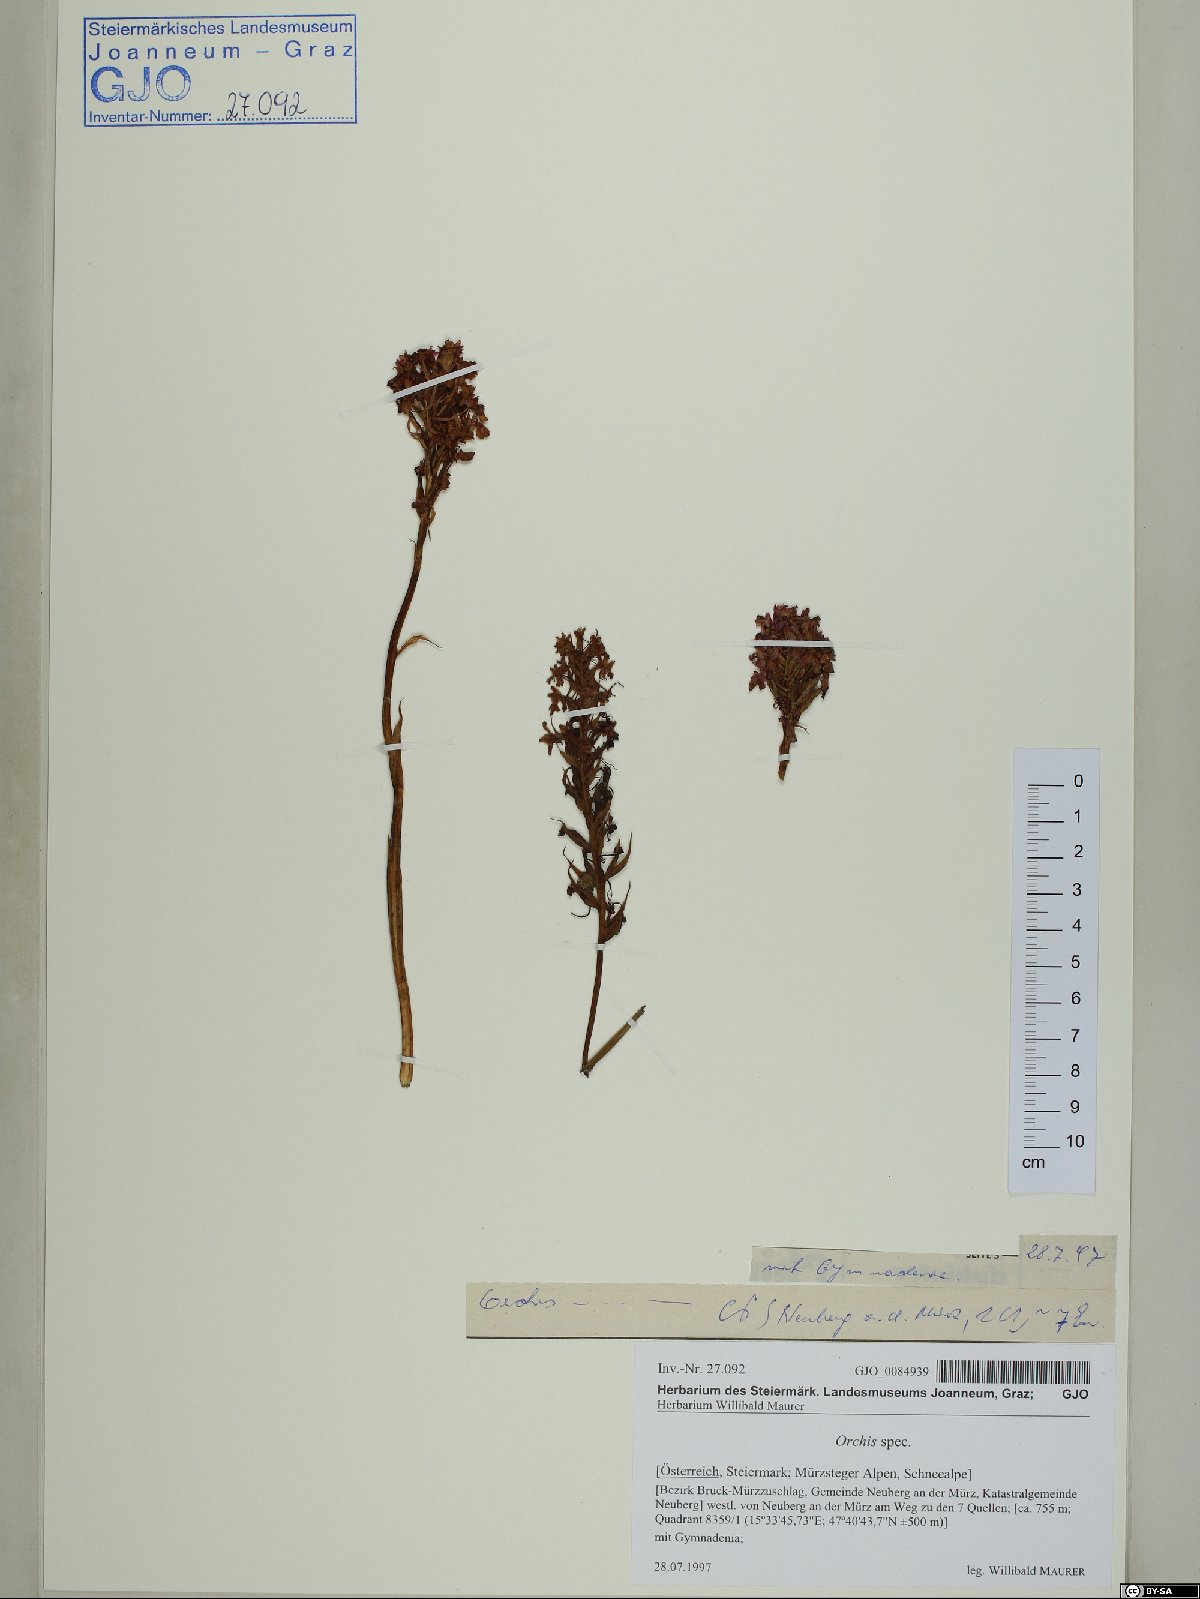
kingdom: Plantae
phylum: Tracheophyta
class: Liliopsida
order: Asparagales
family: Orchidaceae
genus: Orchis
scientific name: Orchis
